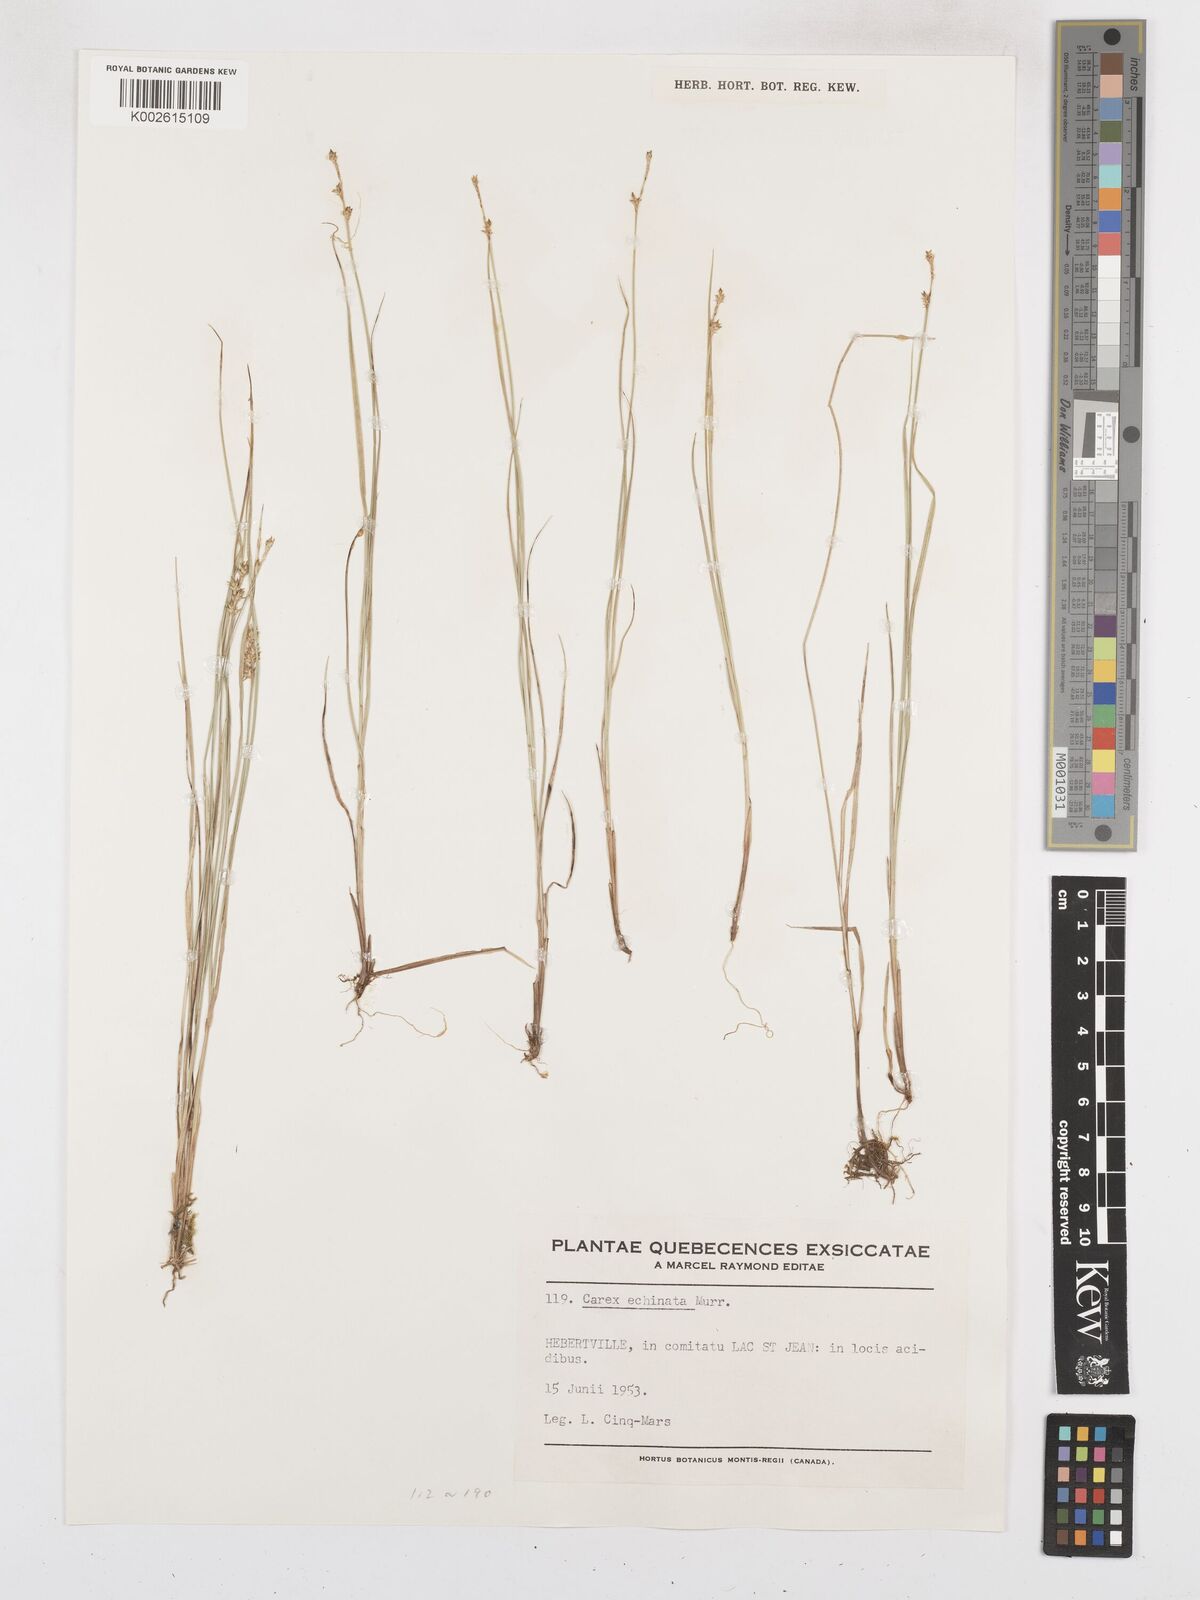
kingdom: Plantae
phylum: Tracheophyta
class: Liliopsida
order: Poales
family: Cyperaceae
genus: Carex
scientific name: Carex echinata
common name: Star sedge
